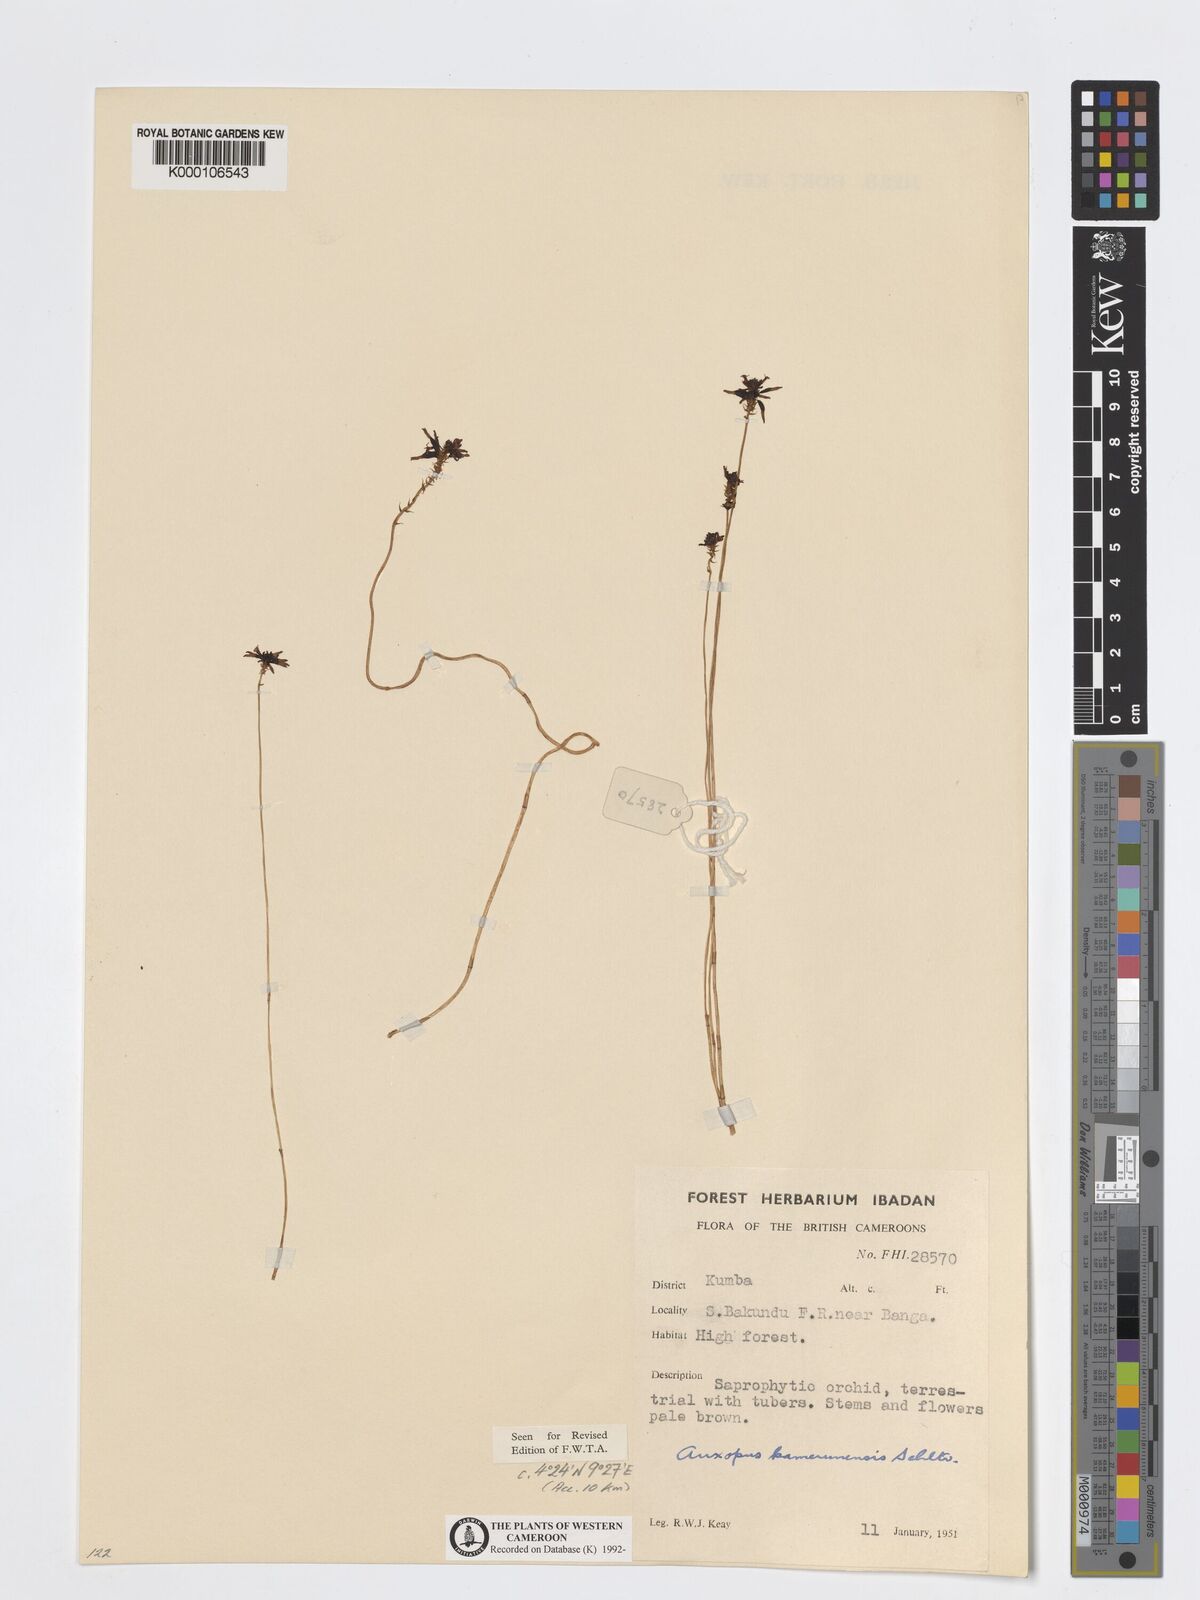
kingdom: Plantae
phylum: Tracheophyta
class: Liliopsida
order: Asparagales
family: Orchidaceae
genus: Auxopus
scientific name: Auxopus kamerunensis
